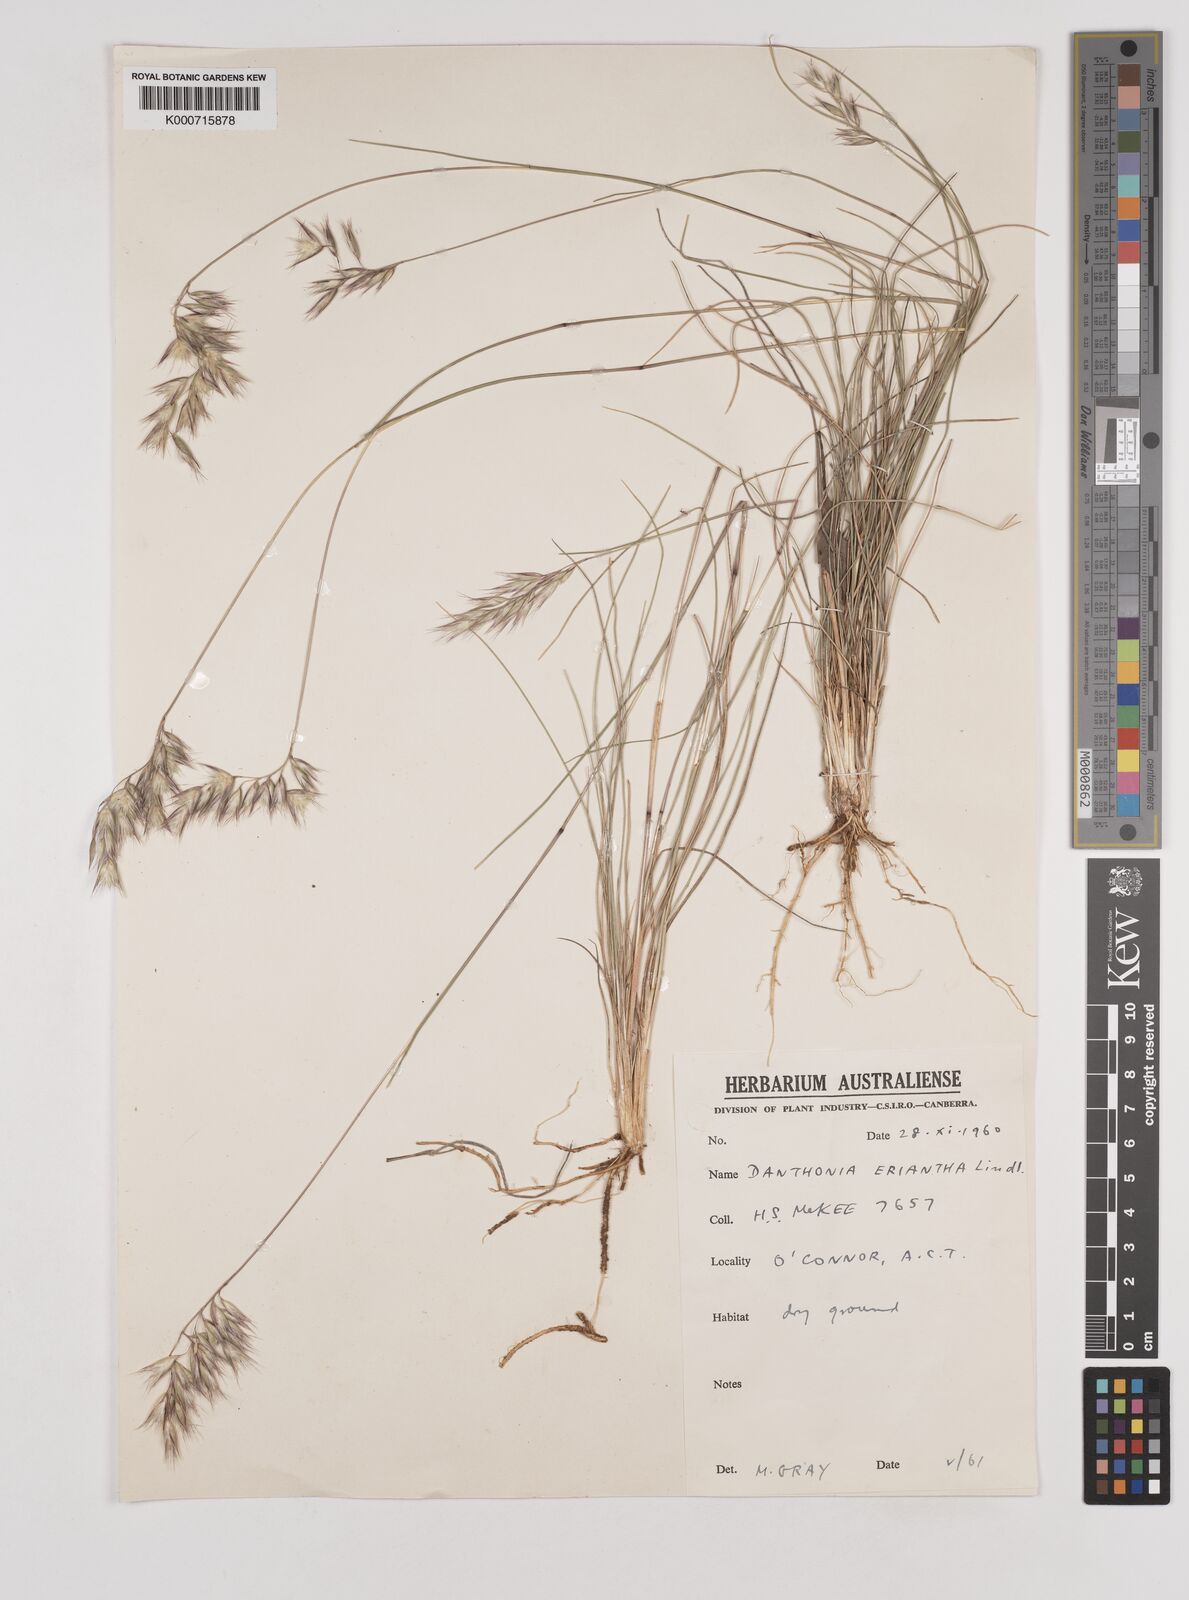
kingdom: Plantae
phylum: Tracheophyta
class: Liliopsida
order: Poales
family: Poaceae
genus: Rytidosperma
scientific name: Rytidosperma erianthum
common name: Hill wallaby grass
